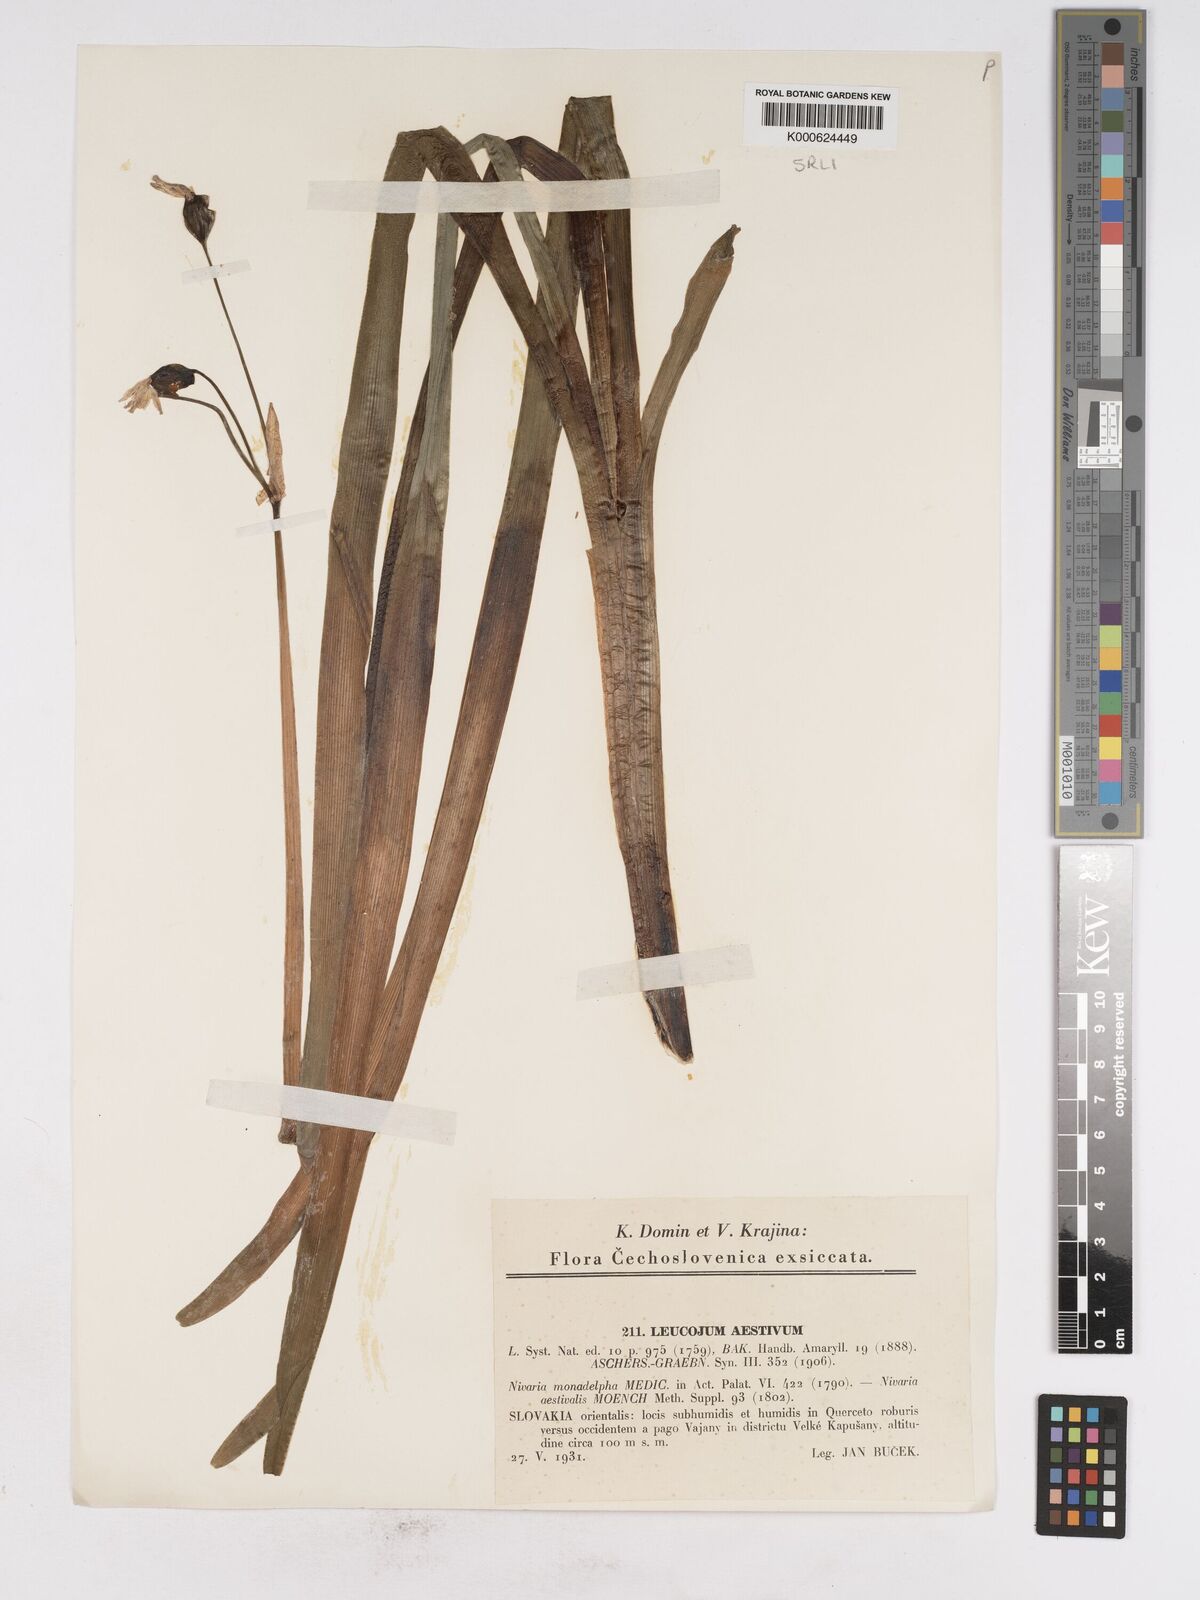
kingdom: Plantae
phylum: Tracheophyta
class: Liliopsida
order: Asparagales
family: Amaryllidaceae
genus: Leucojum
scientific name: Leucojum aestivum
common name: Summer snowflake
